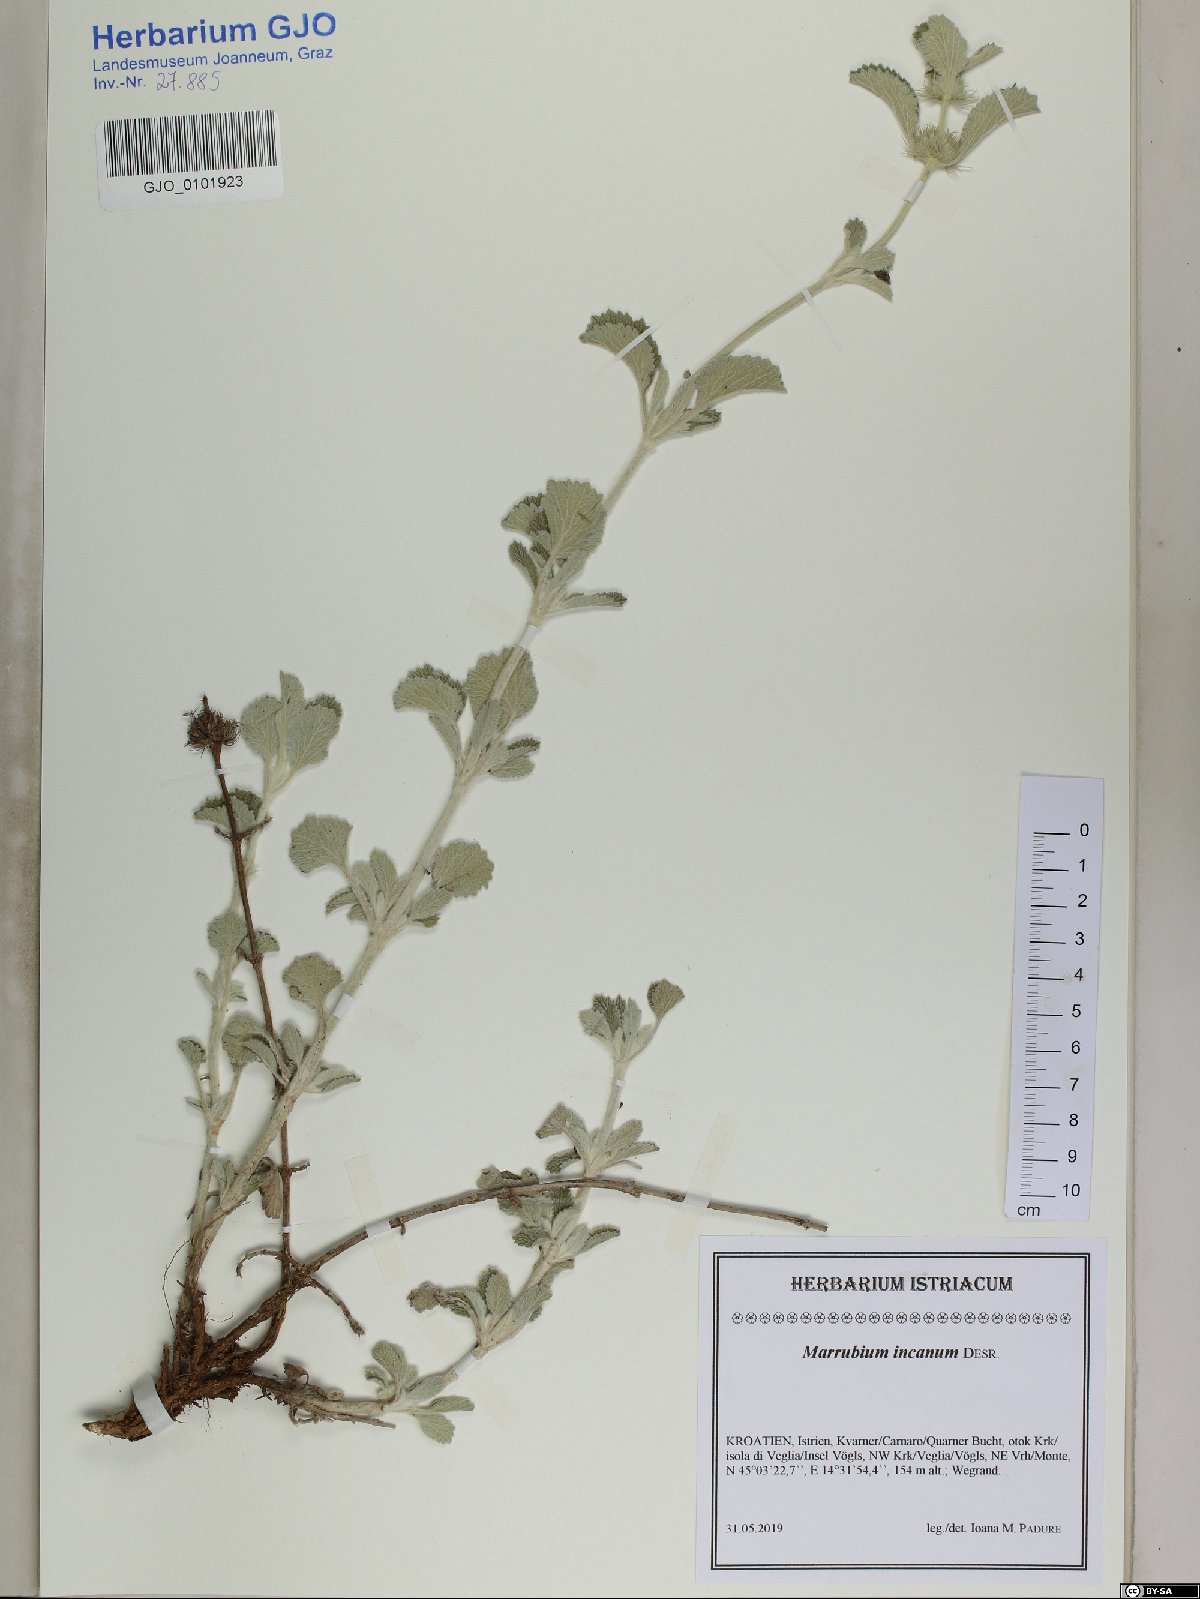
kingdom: Plantae
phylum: Tracheophyta
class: Magnoliopsida
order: Lamiales
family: Lamiaceae
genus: Marrubium
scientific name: Marrubium incanum
